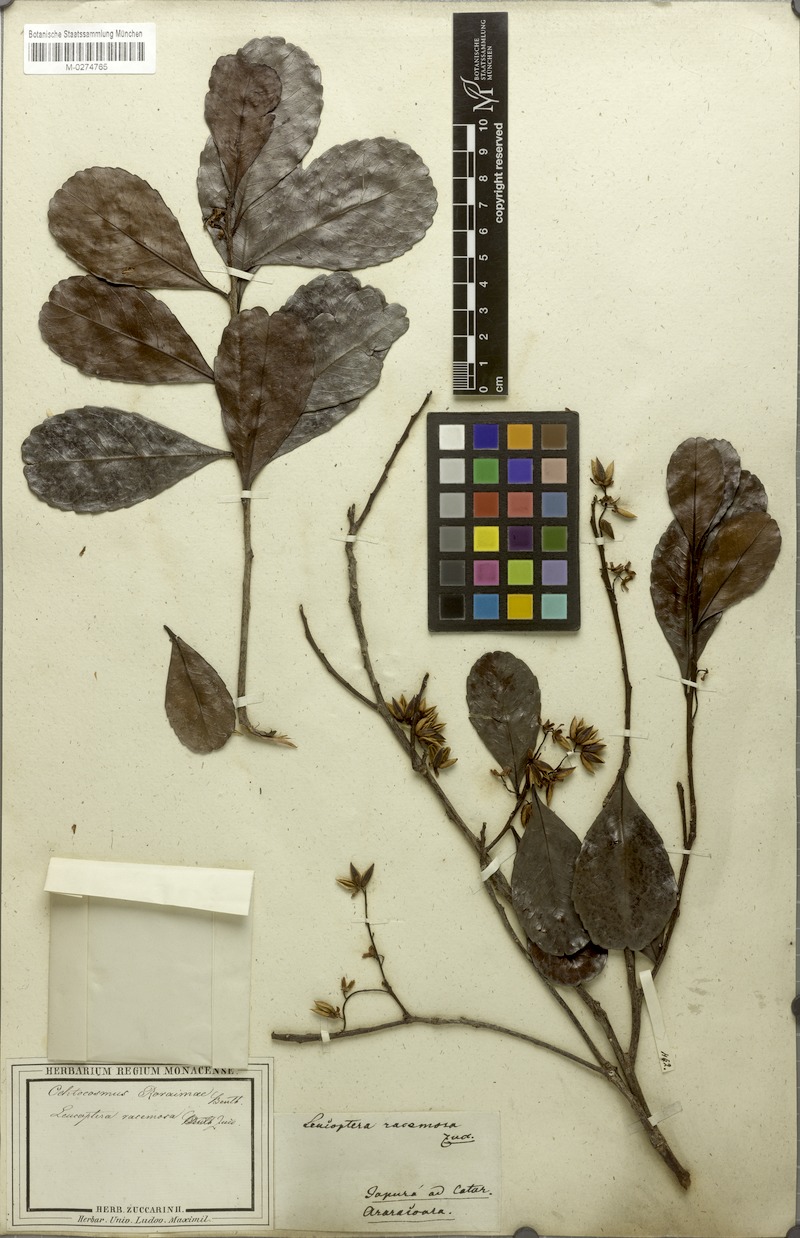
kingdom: Plantae
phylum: Tracheophyta
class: Magnoliopsida
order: Malpighiales
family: Ixonanthaceae
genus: Ochthocosmus
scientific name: Ochthocosmus roraimae
